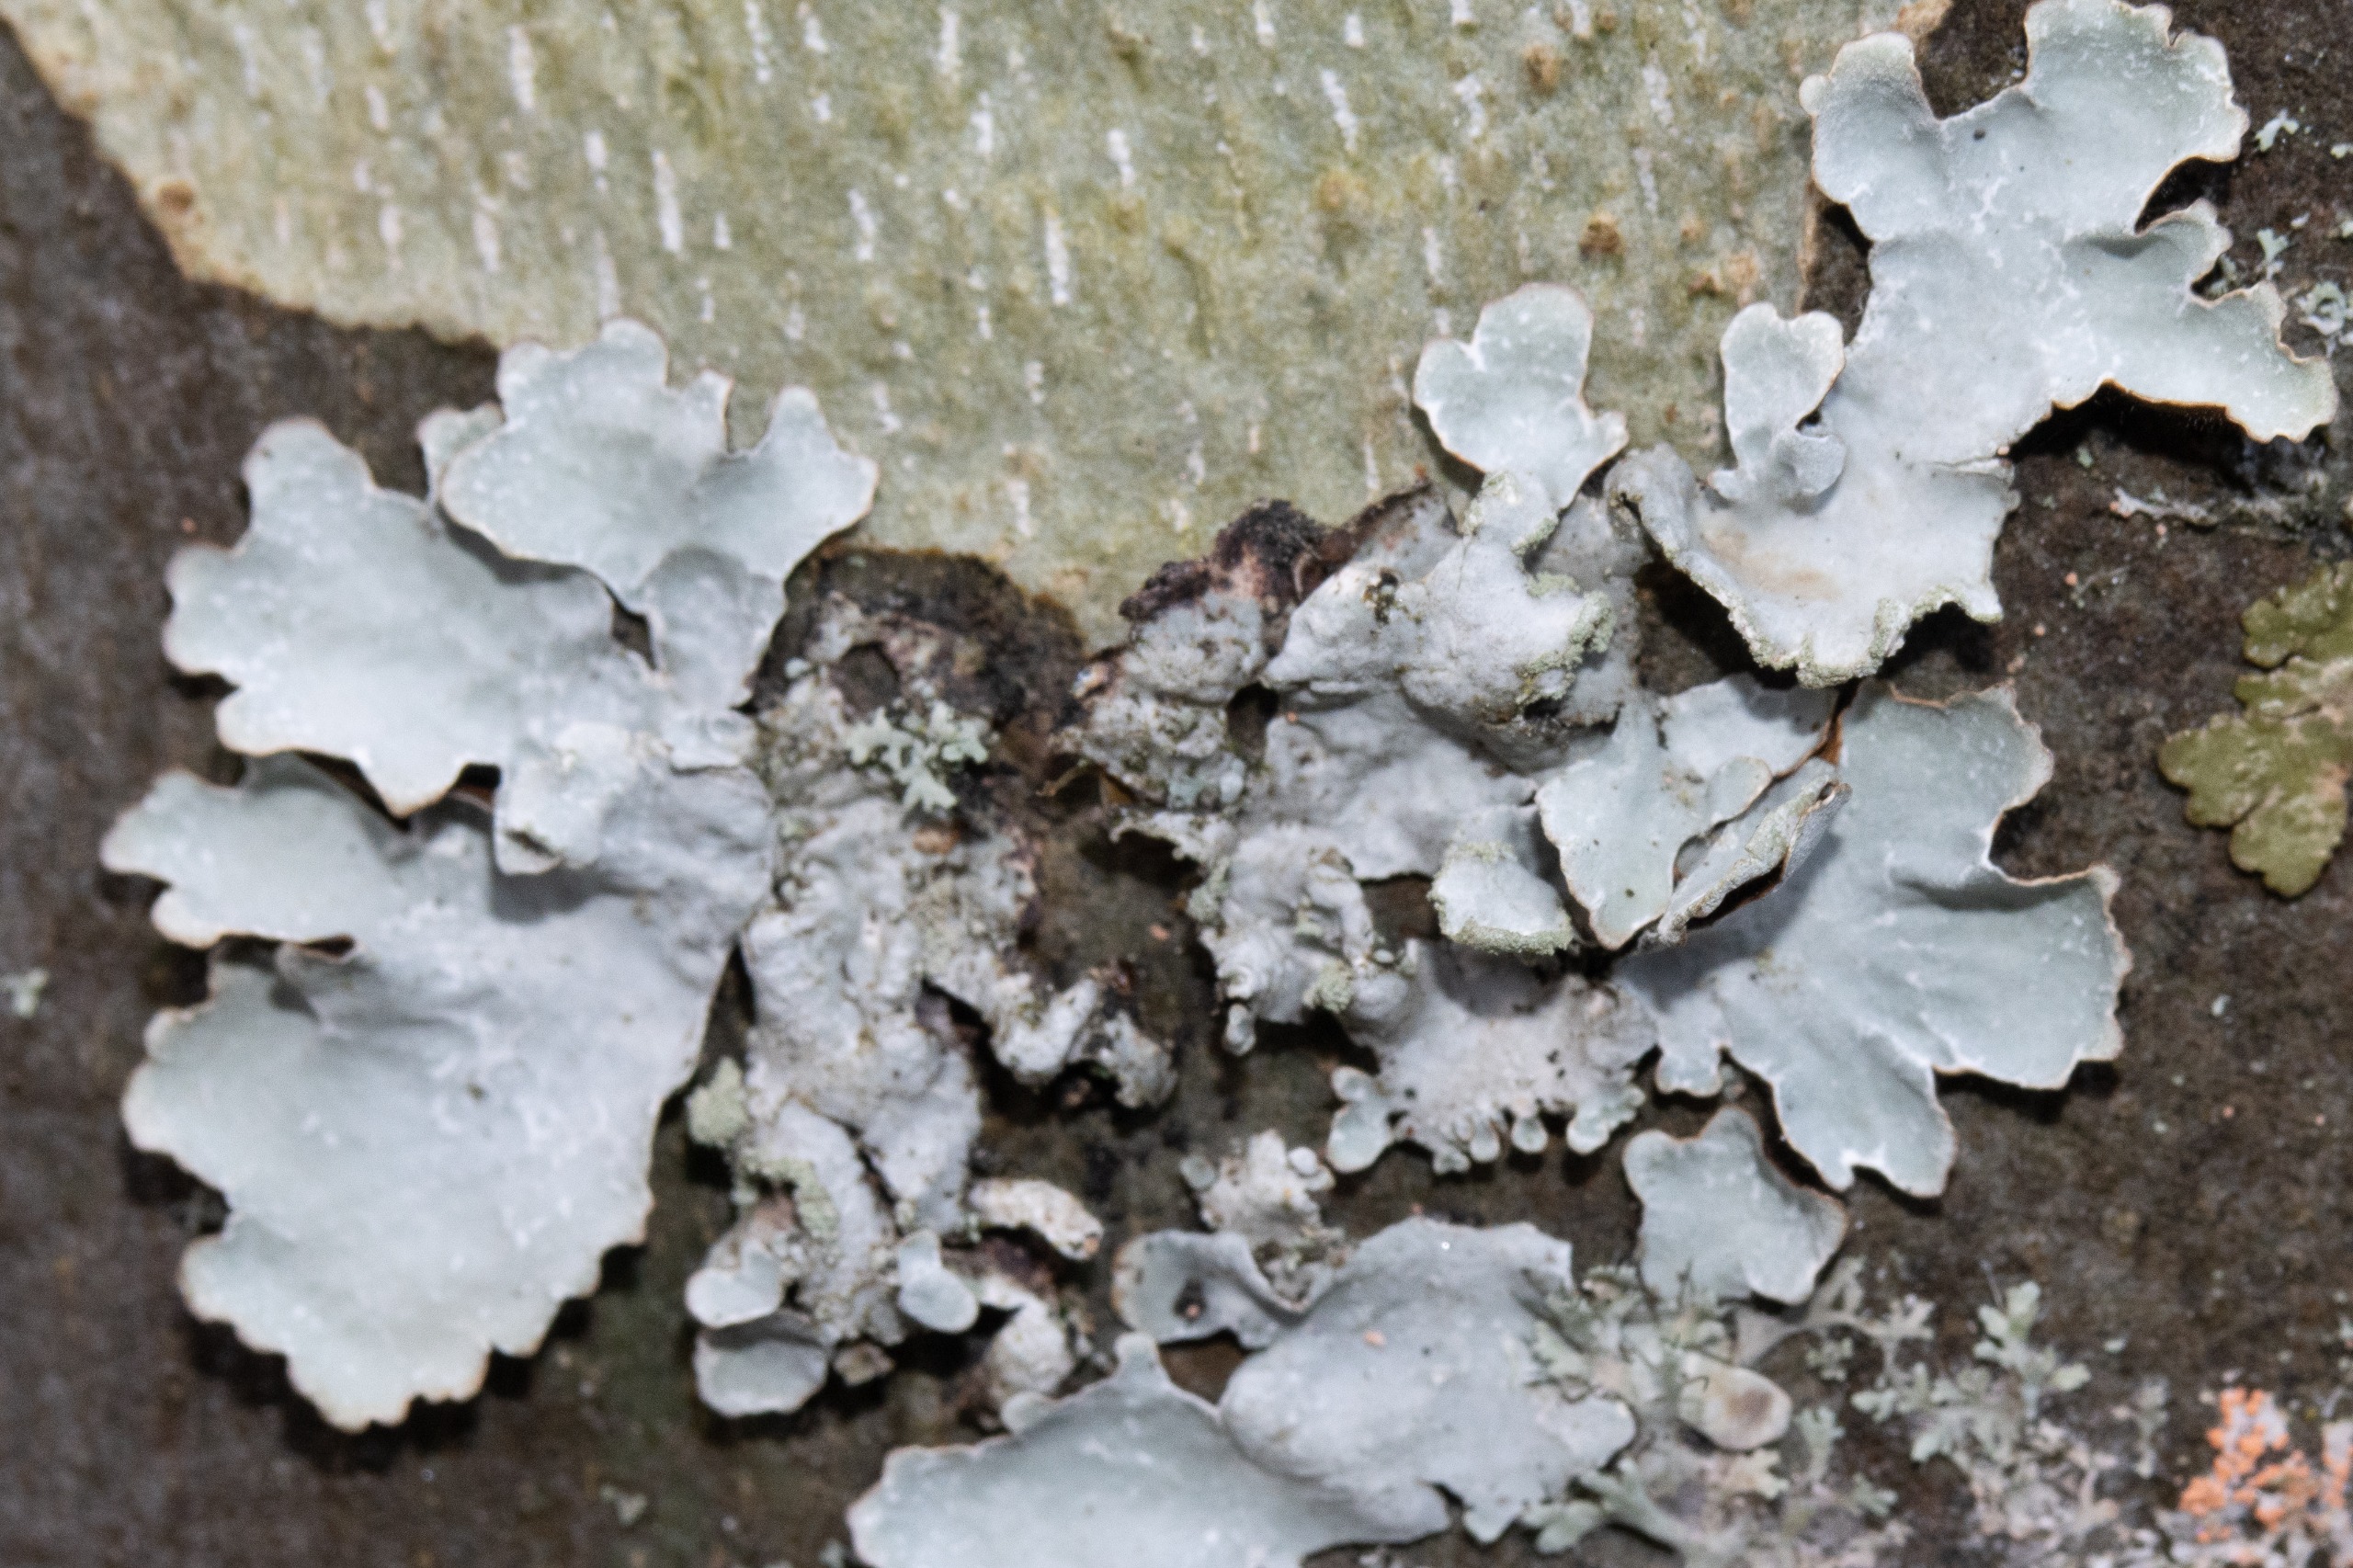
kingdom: Fungi
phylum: Ascomycota
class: Lecanoromycetes
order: Lecanorales
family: Parmeliaceae
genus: Parmelia
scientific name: Parmelia sulcata
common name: Rynket skållav
